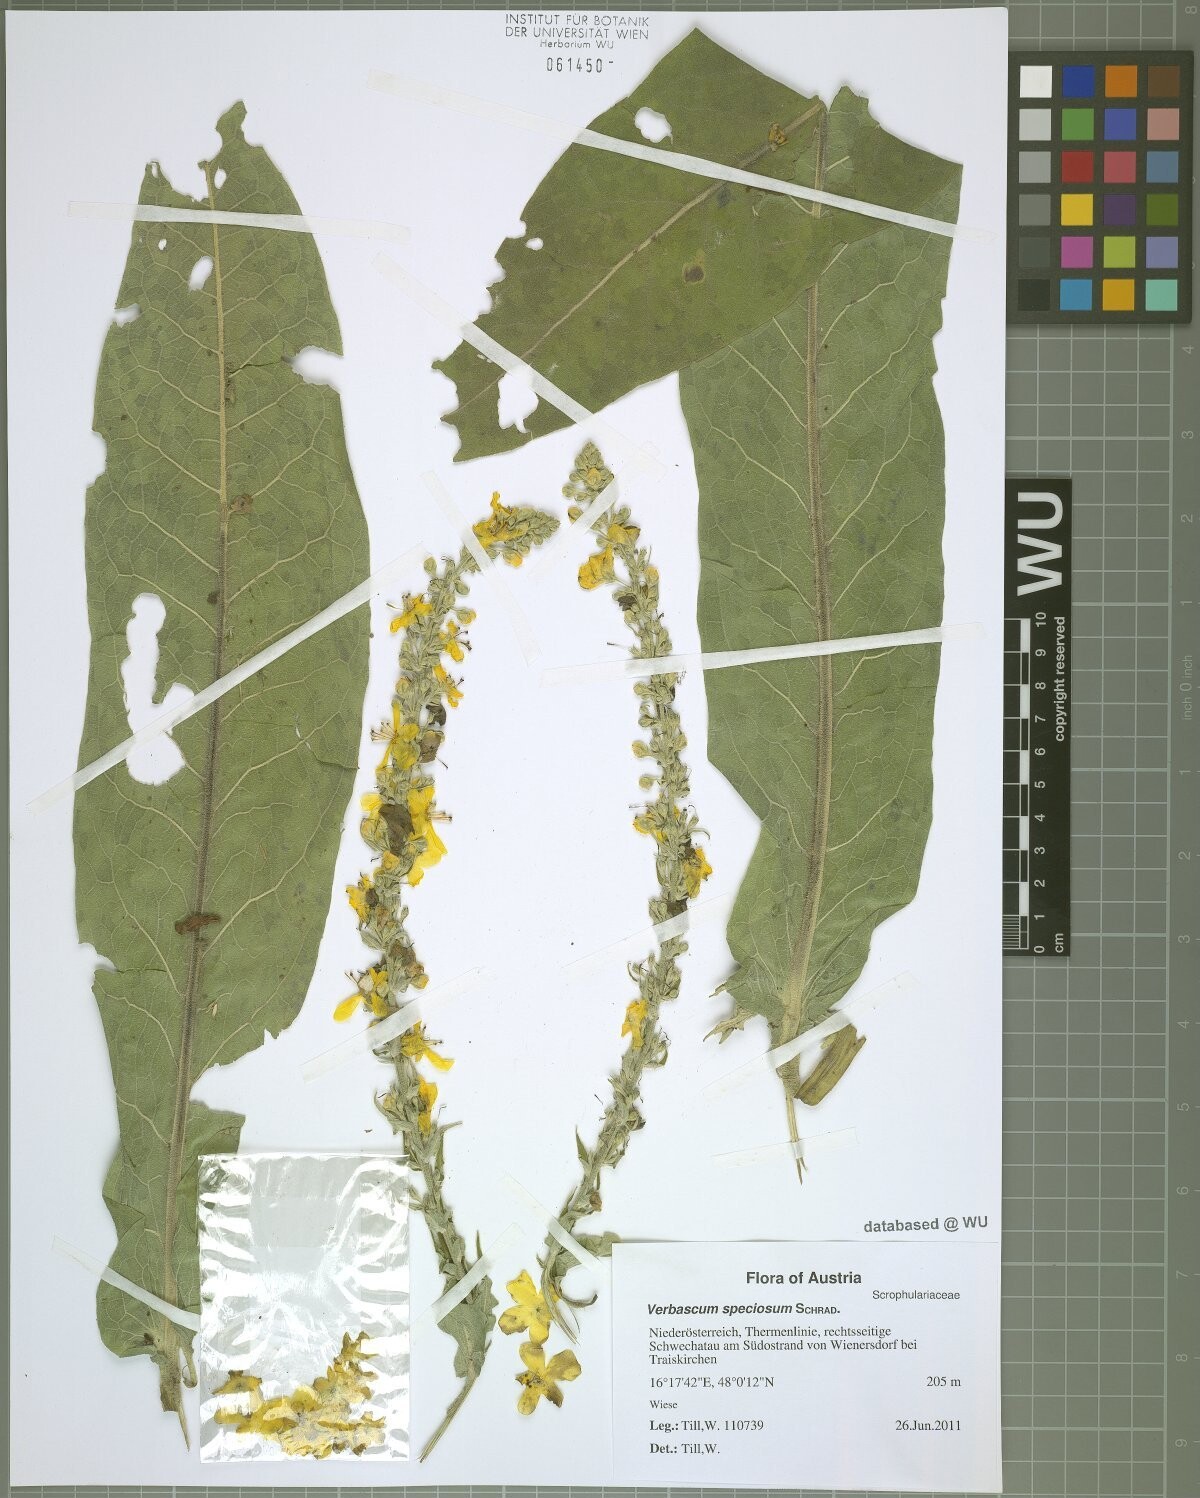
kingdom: Plantae
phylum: Tracheophyta
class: Magnoliopsida
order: Lamiales
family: Scrophulariaceae
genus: Verbascum
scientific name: Verbascum speciosum
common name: Hungarian mullein
